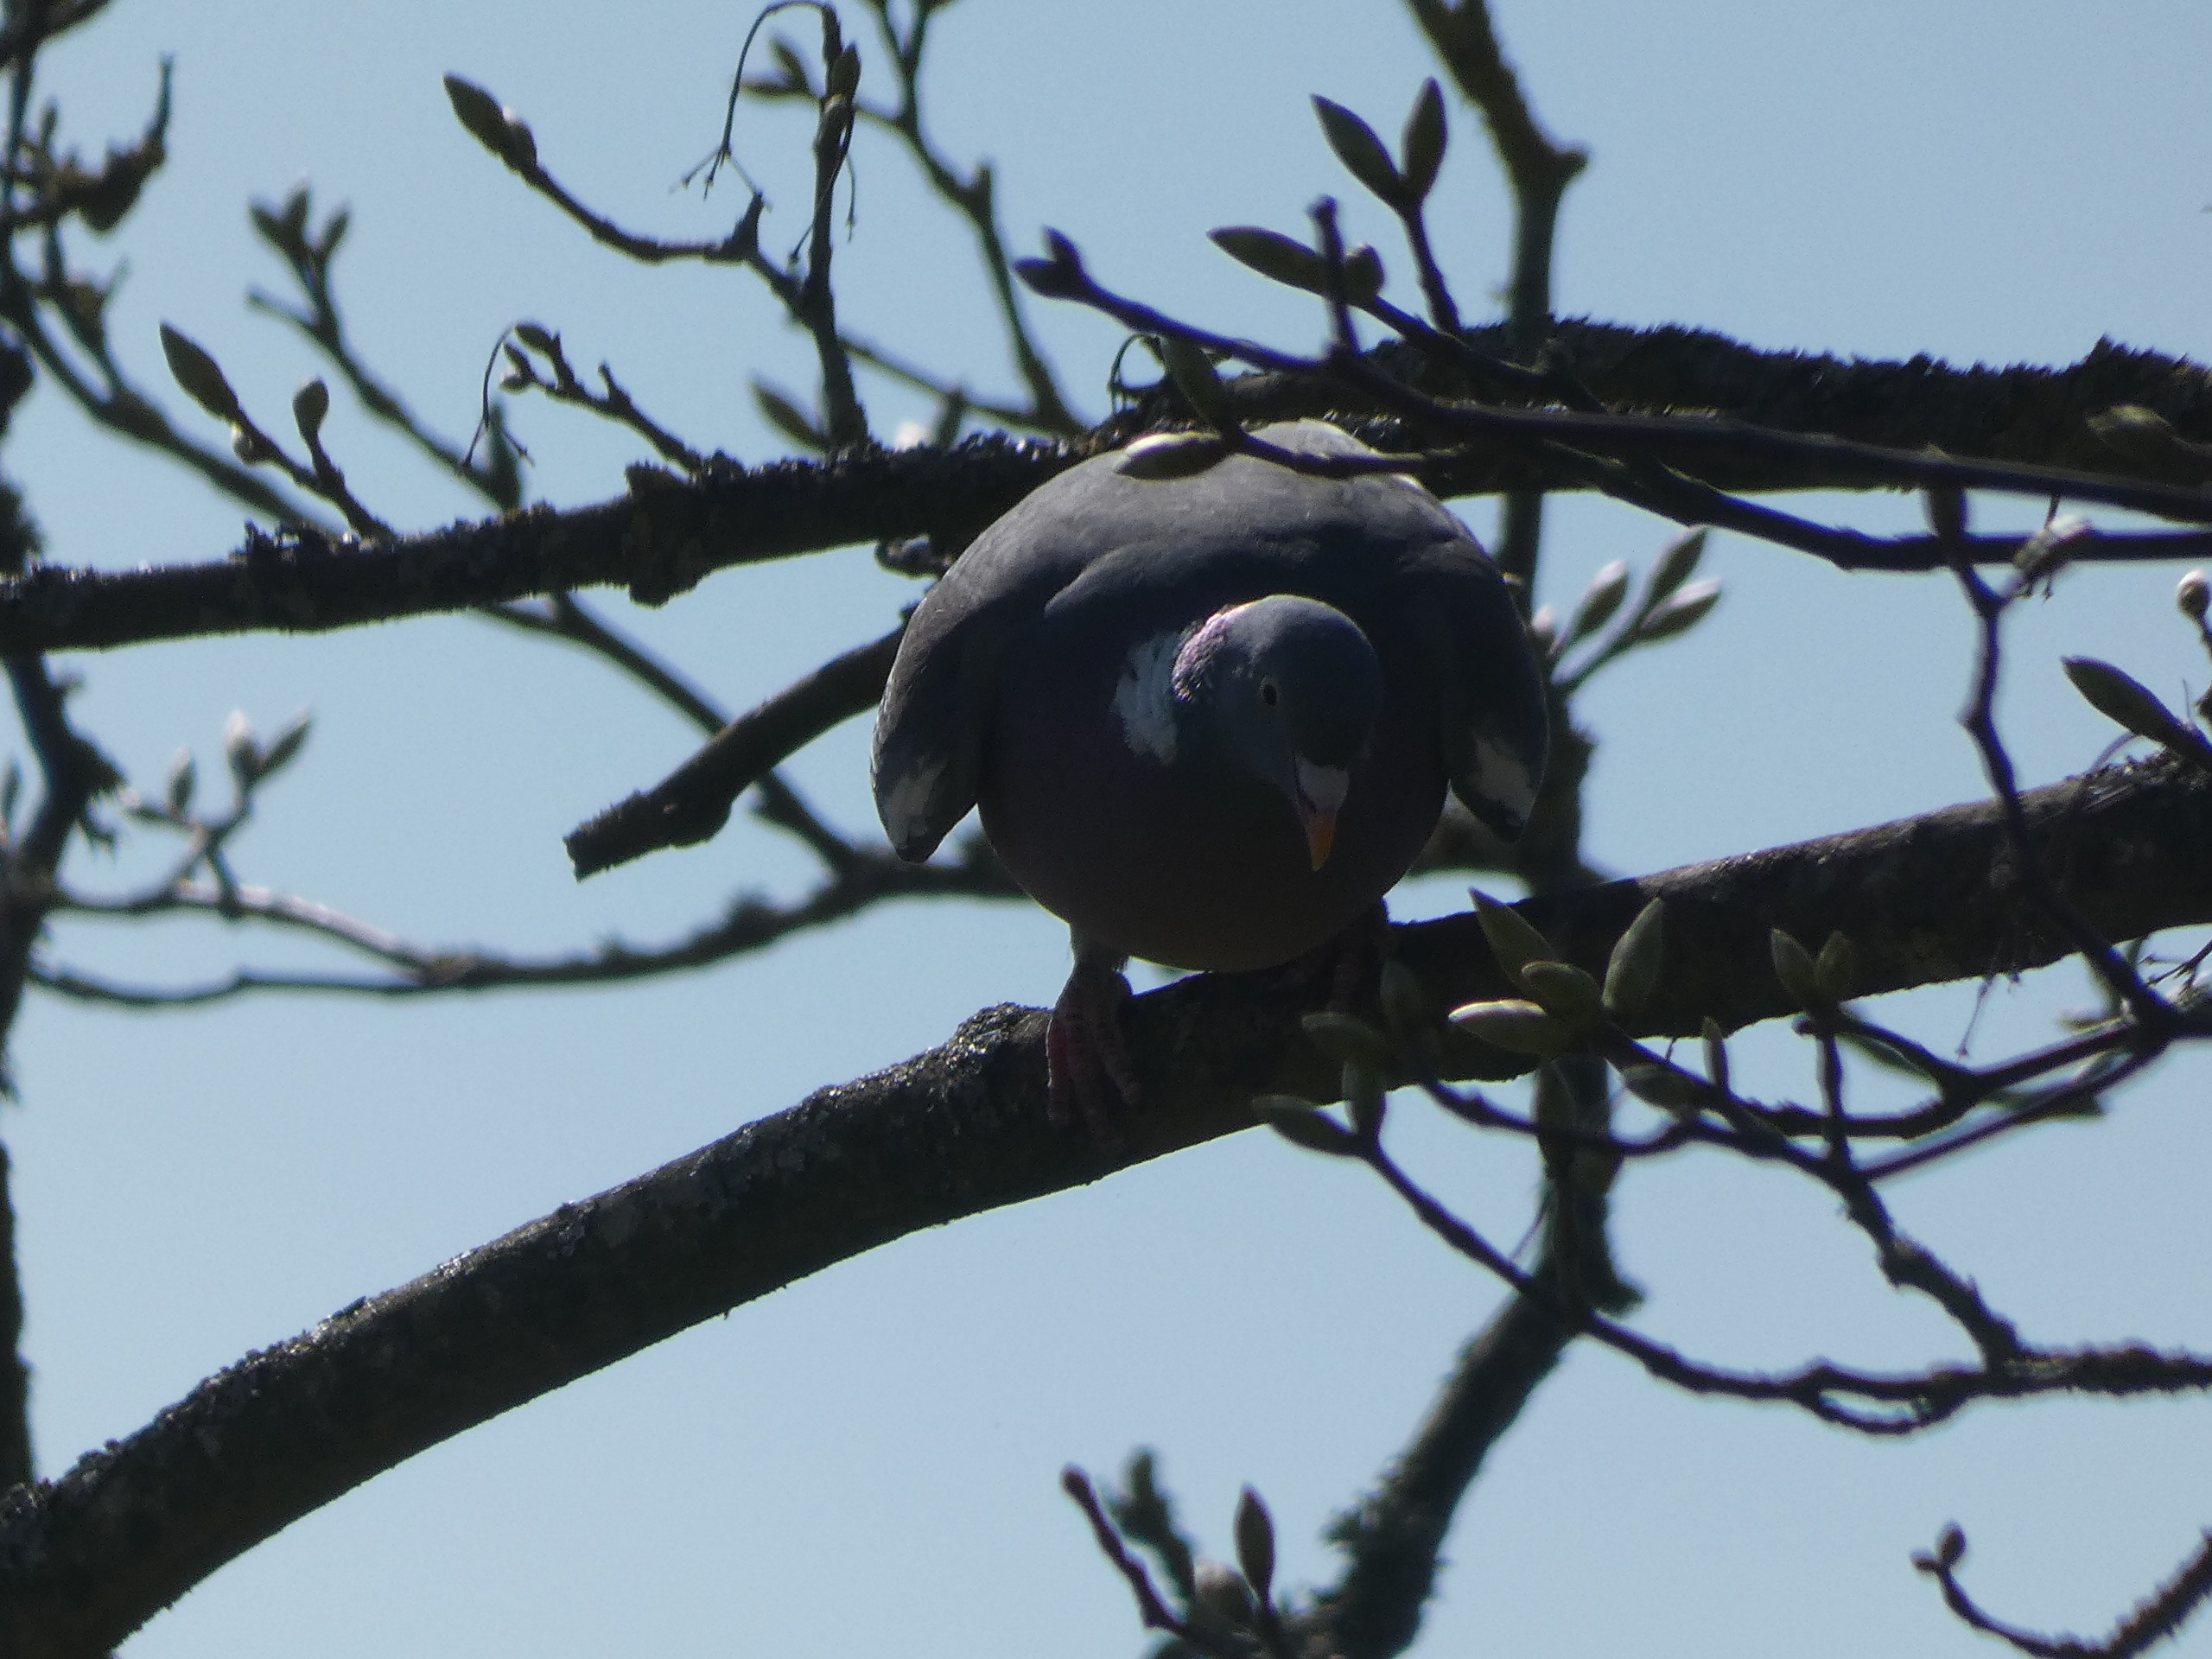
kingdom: Animalia
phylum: Chordata
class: Aves
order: Columbiformes
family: Columbidae
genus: Columba
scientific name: Columba palumbus
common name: Ringdue
